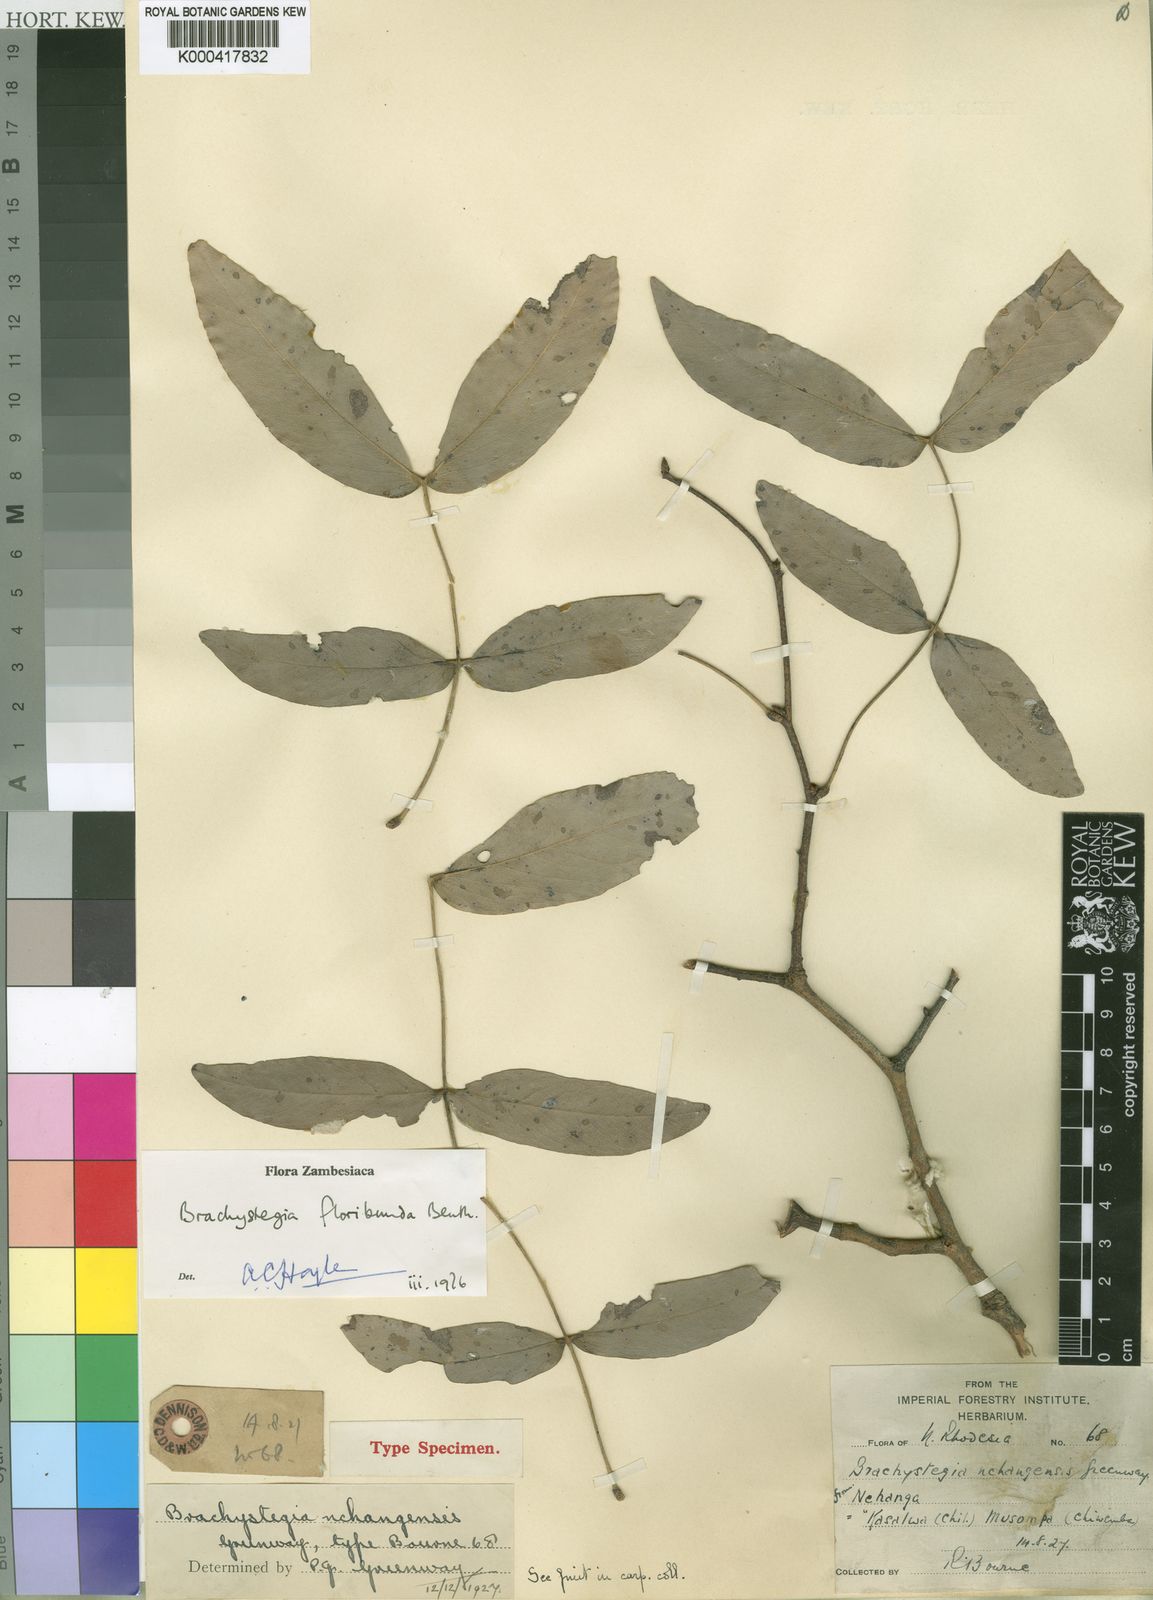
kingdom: Plantae
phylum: Tracheophyta
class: Magnoliopsida
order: Fabales
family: Fabaceae
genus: Brachystegia
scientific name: Brachystegia floribunda
